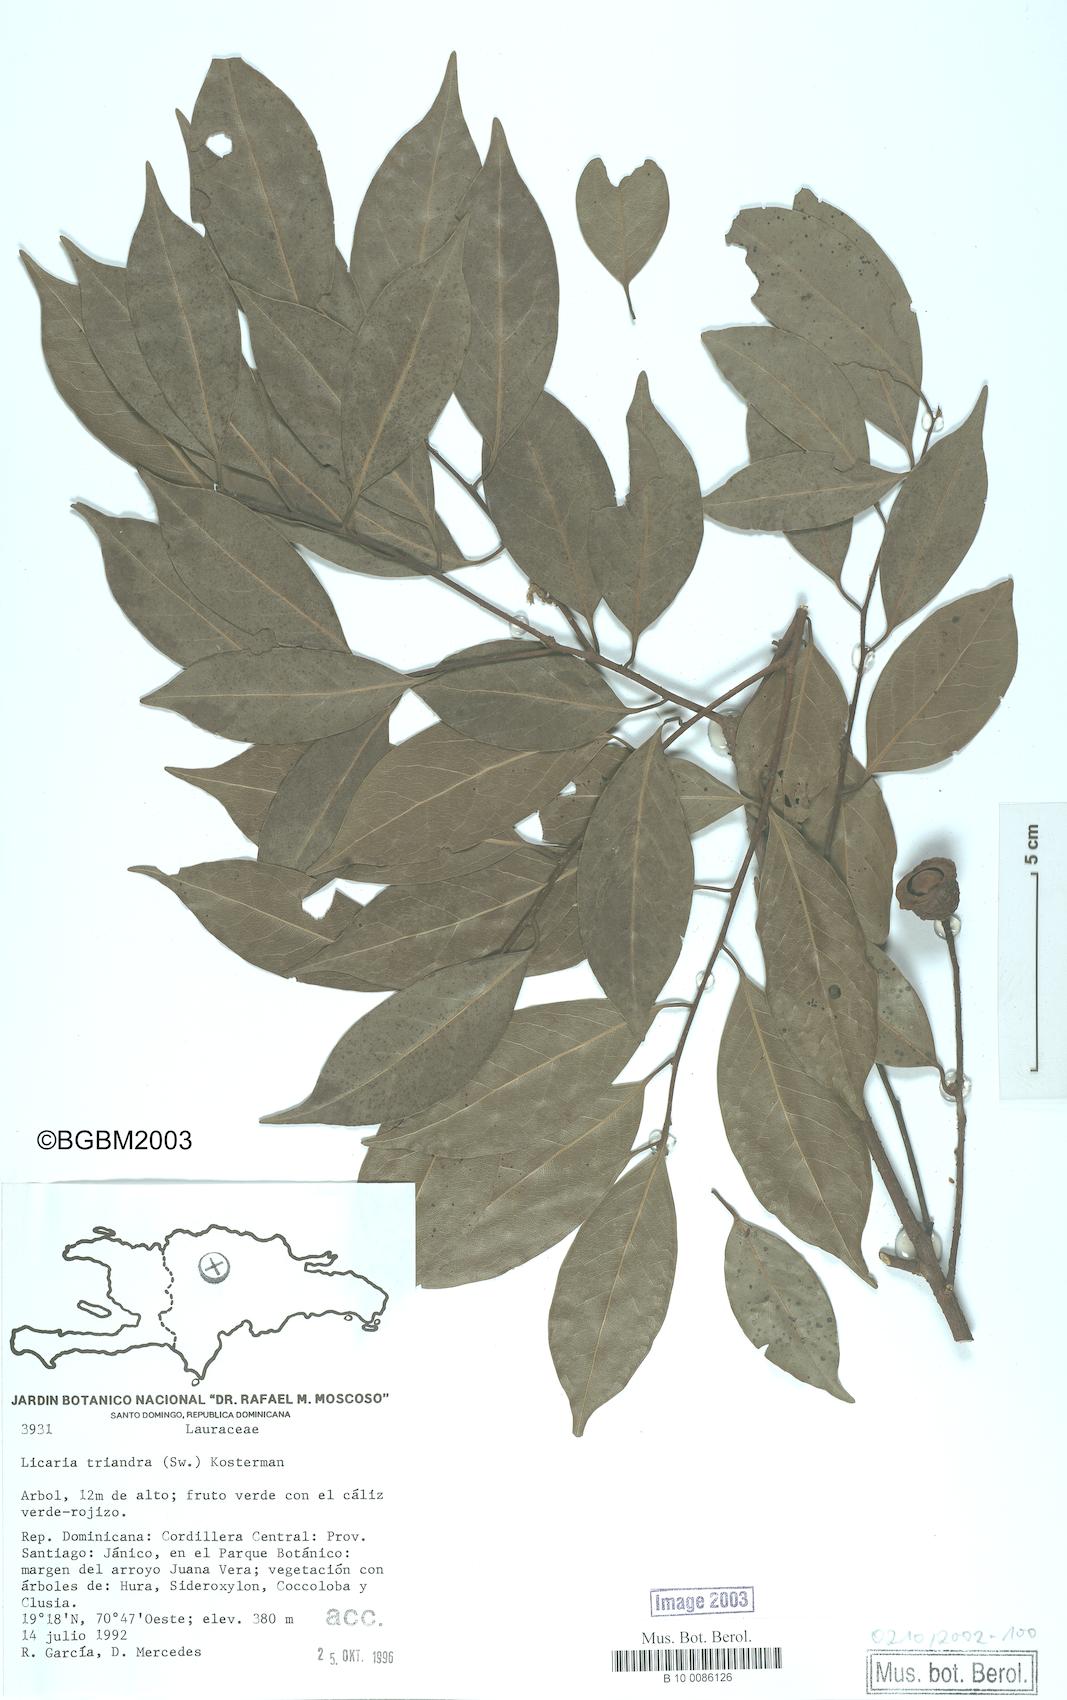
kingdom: Plantae
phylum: Tracheophyta
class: Magnoliopsida
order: Laurales
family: Lauraceae
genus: Licaria
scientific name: Licaria triandra
